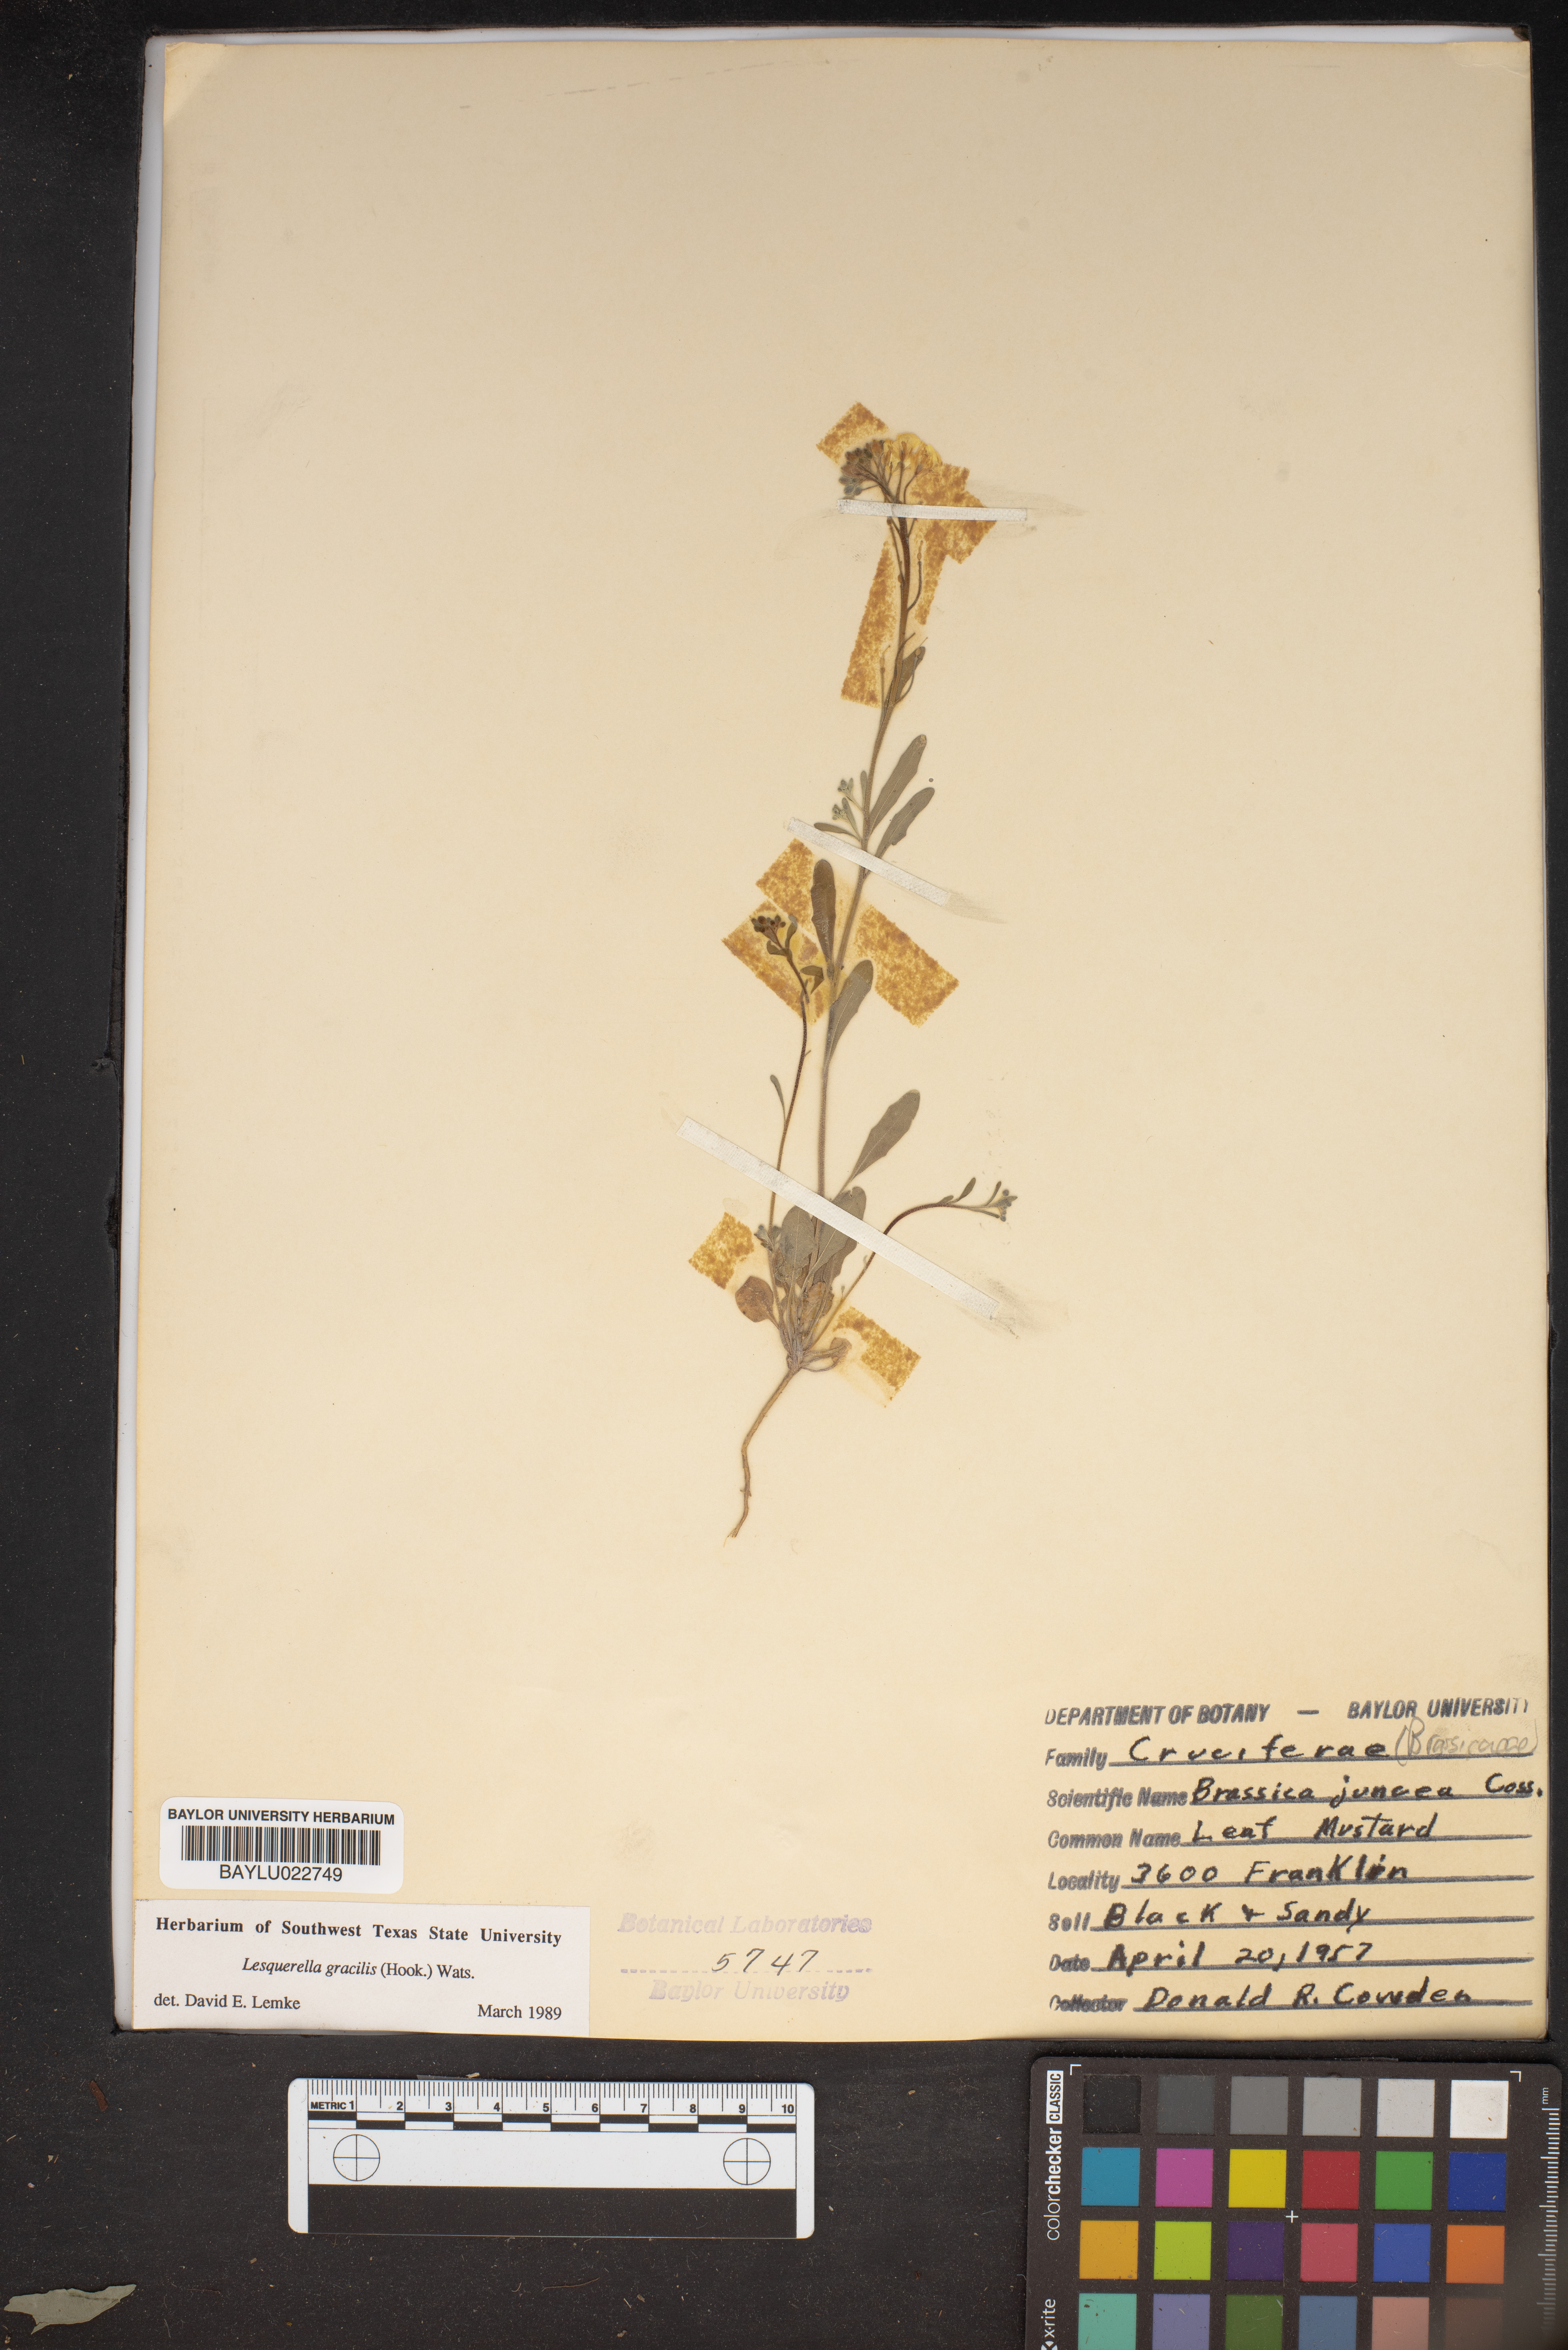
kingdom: Plantae
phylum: Tracheophyta
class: Magnoliopsida
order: Brassicales
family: Brassicaceae
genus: Physaria
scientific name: Physaria gracilis
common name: Spreading bladderpod
